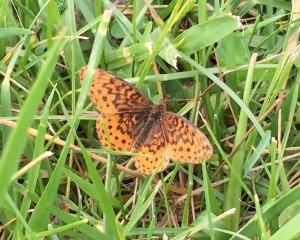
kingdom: Animalia
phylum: Arthropoda
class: Insecta
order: Lepidoptera
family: Nymphalidae
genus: Clossiana
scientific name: Clossiana toddi
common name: Meadow Fritillary
